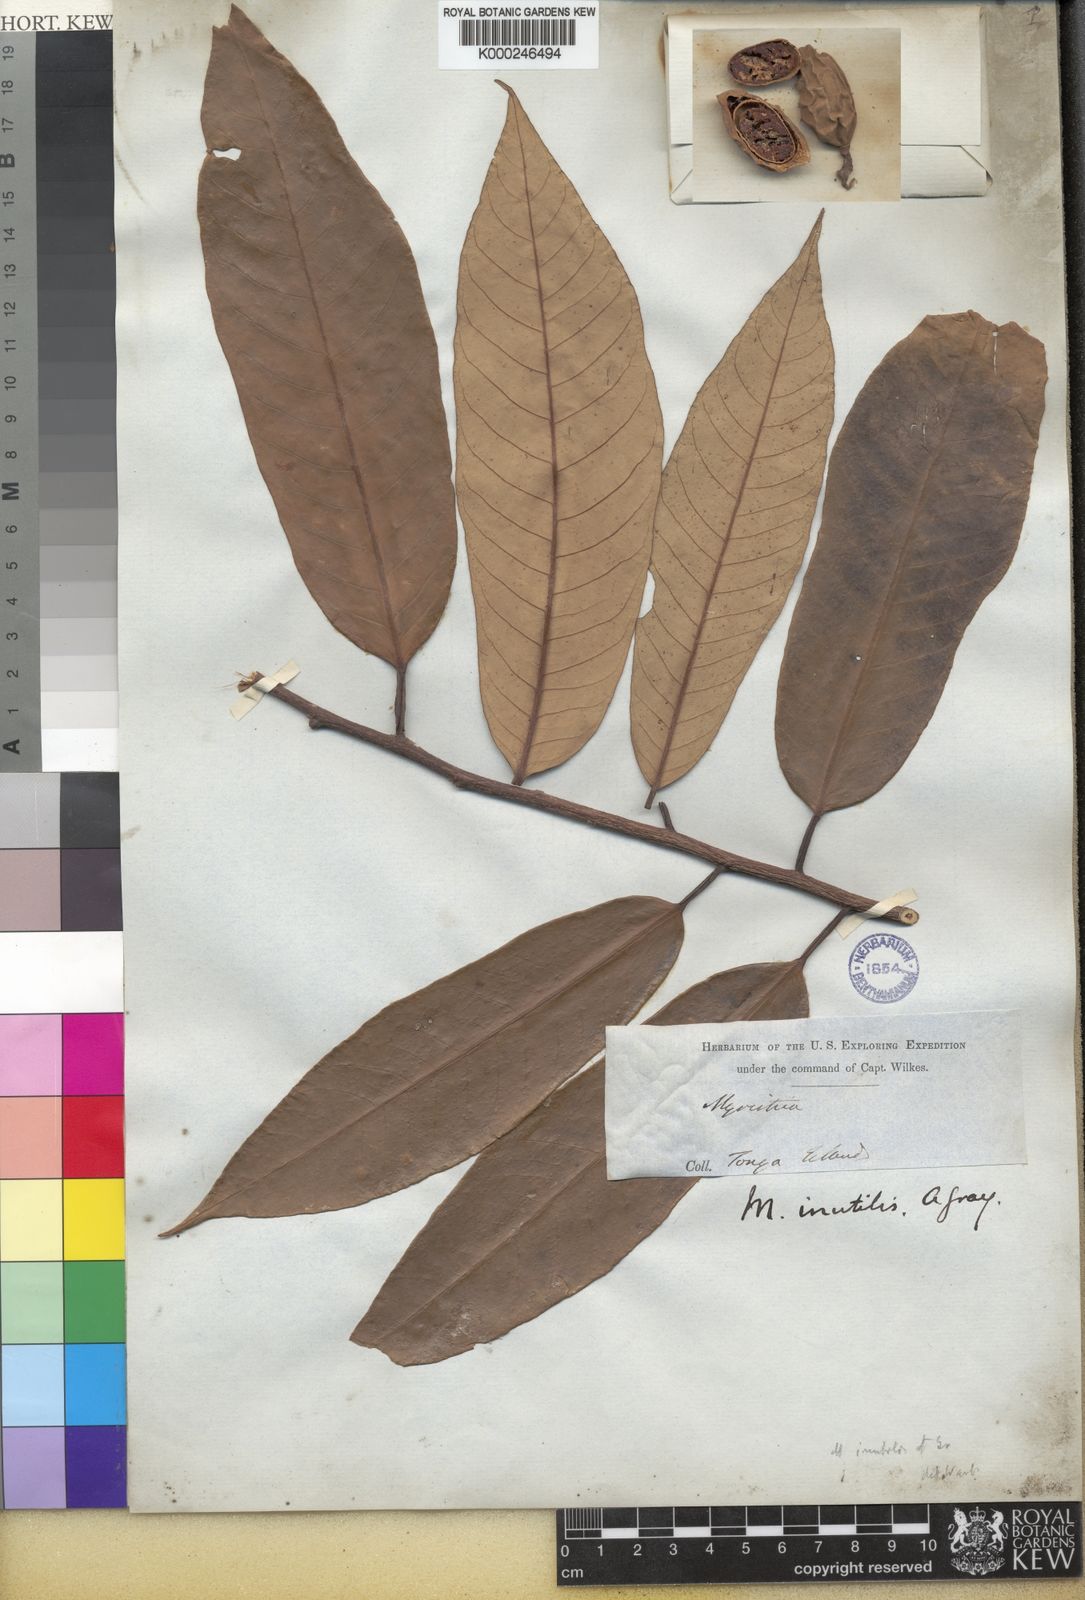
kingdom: Plantae
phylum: Tracheophyta
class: Magnoliopsida
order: Magnoliales
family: Myristicaceae
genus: Myristica
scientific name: Myristica fatua
